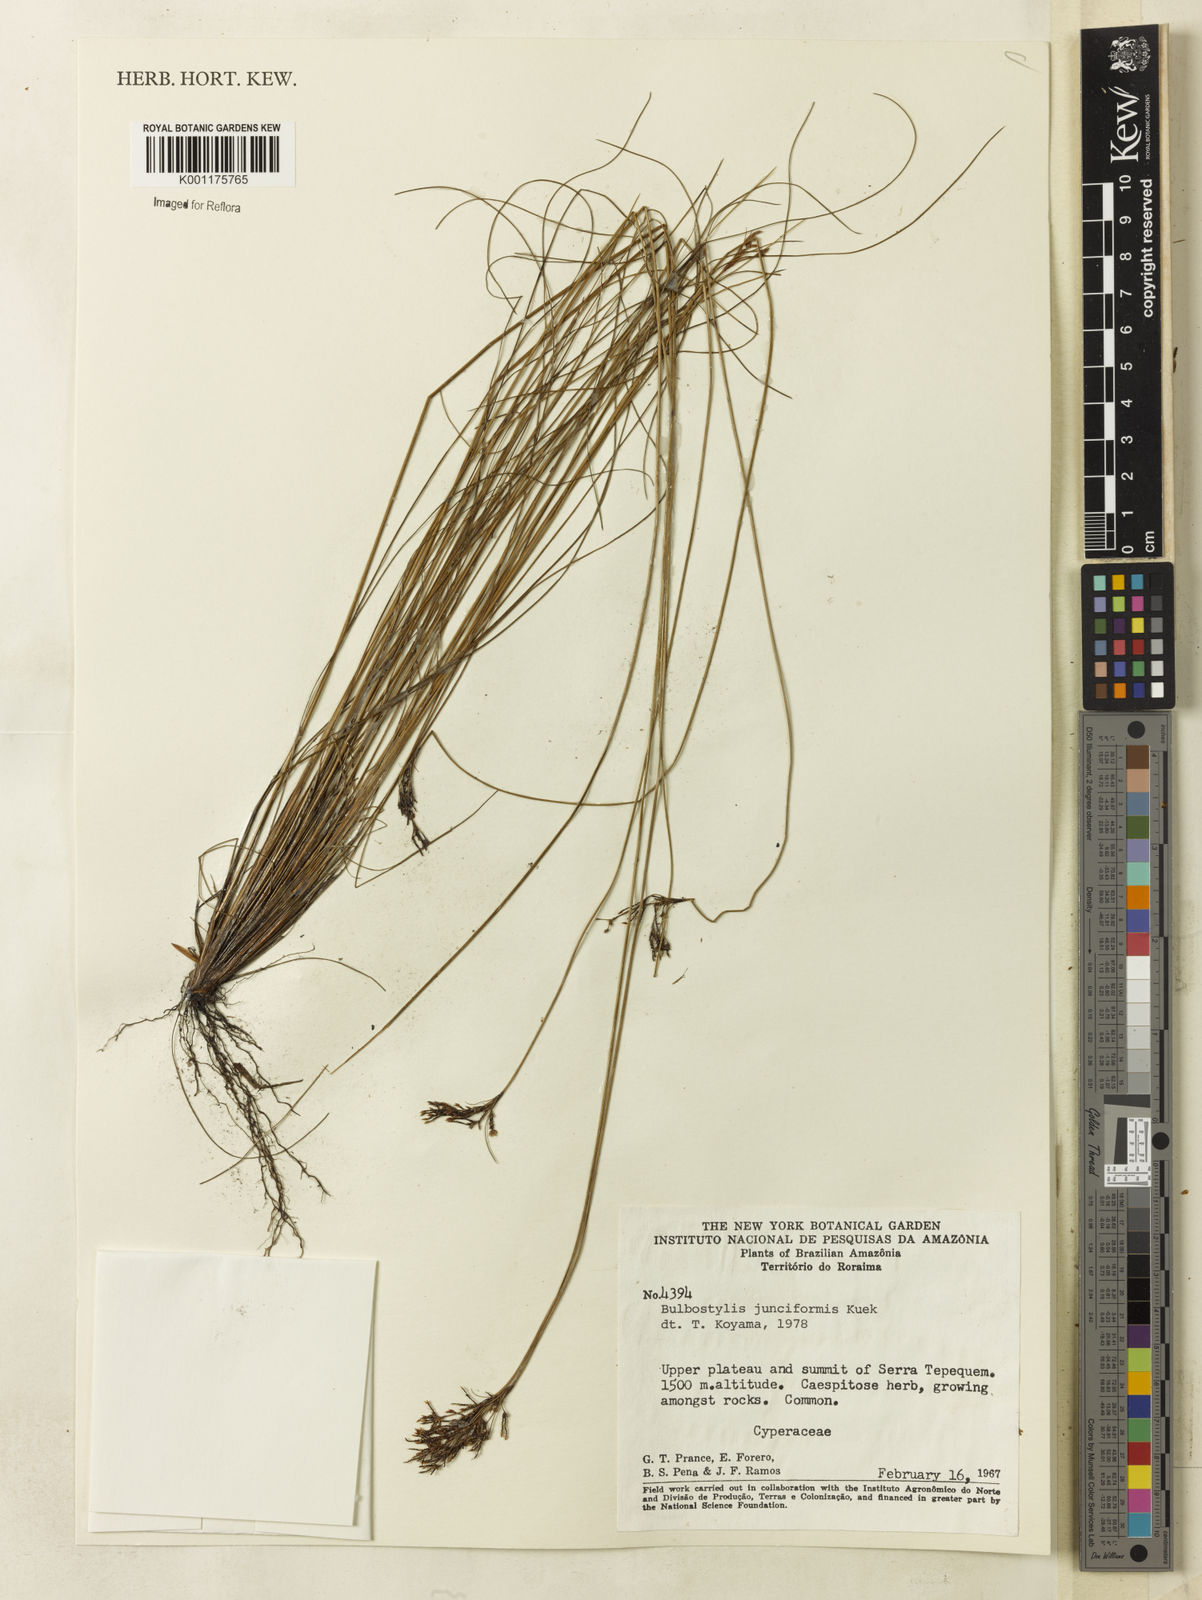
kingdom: Plantae
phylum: Tracheophyta
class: Liliopsida
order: Poales
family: Cyperaceae
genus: Bulbostylis
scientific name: Bulbostylis junciformis
